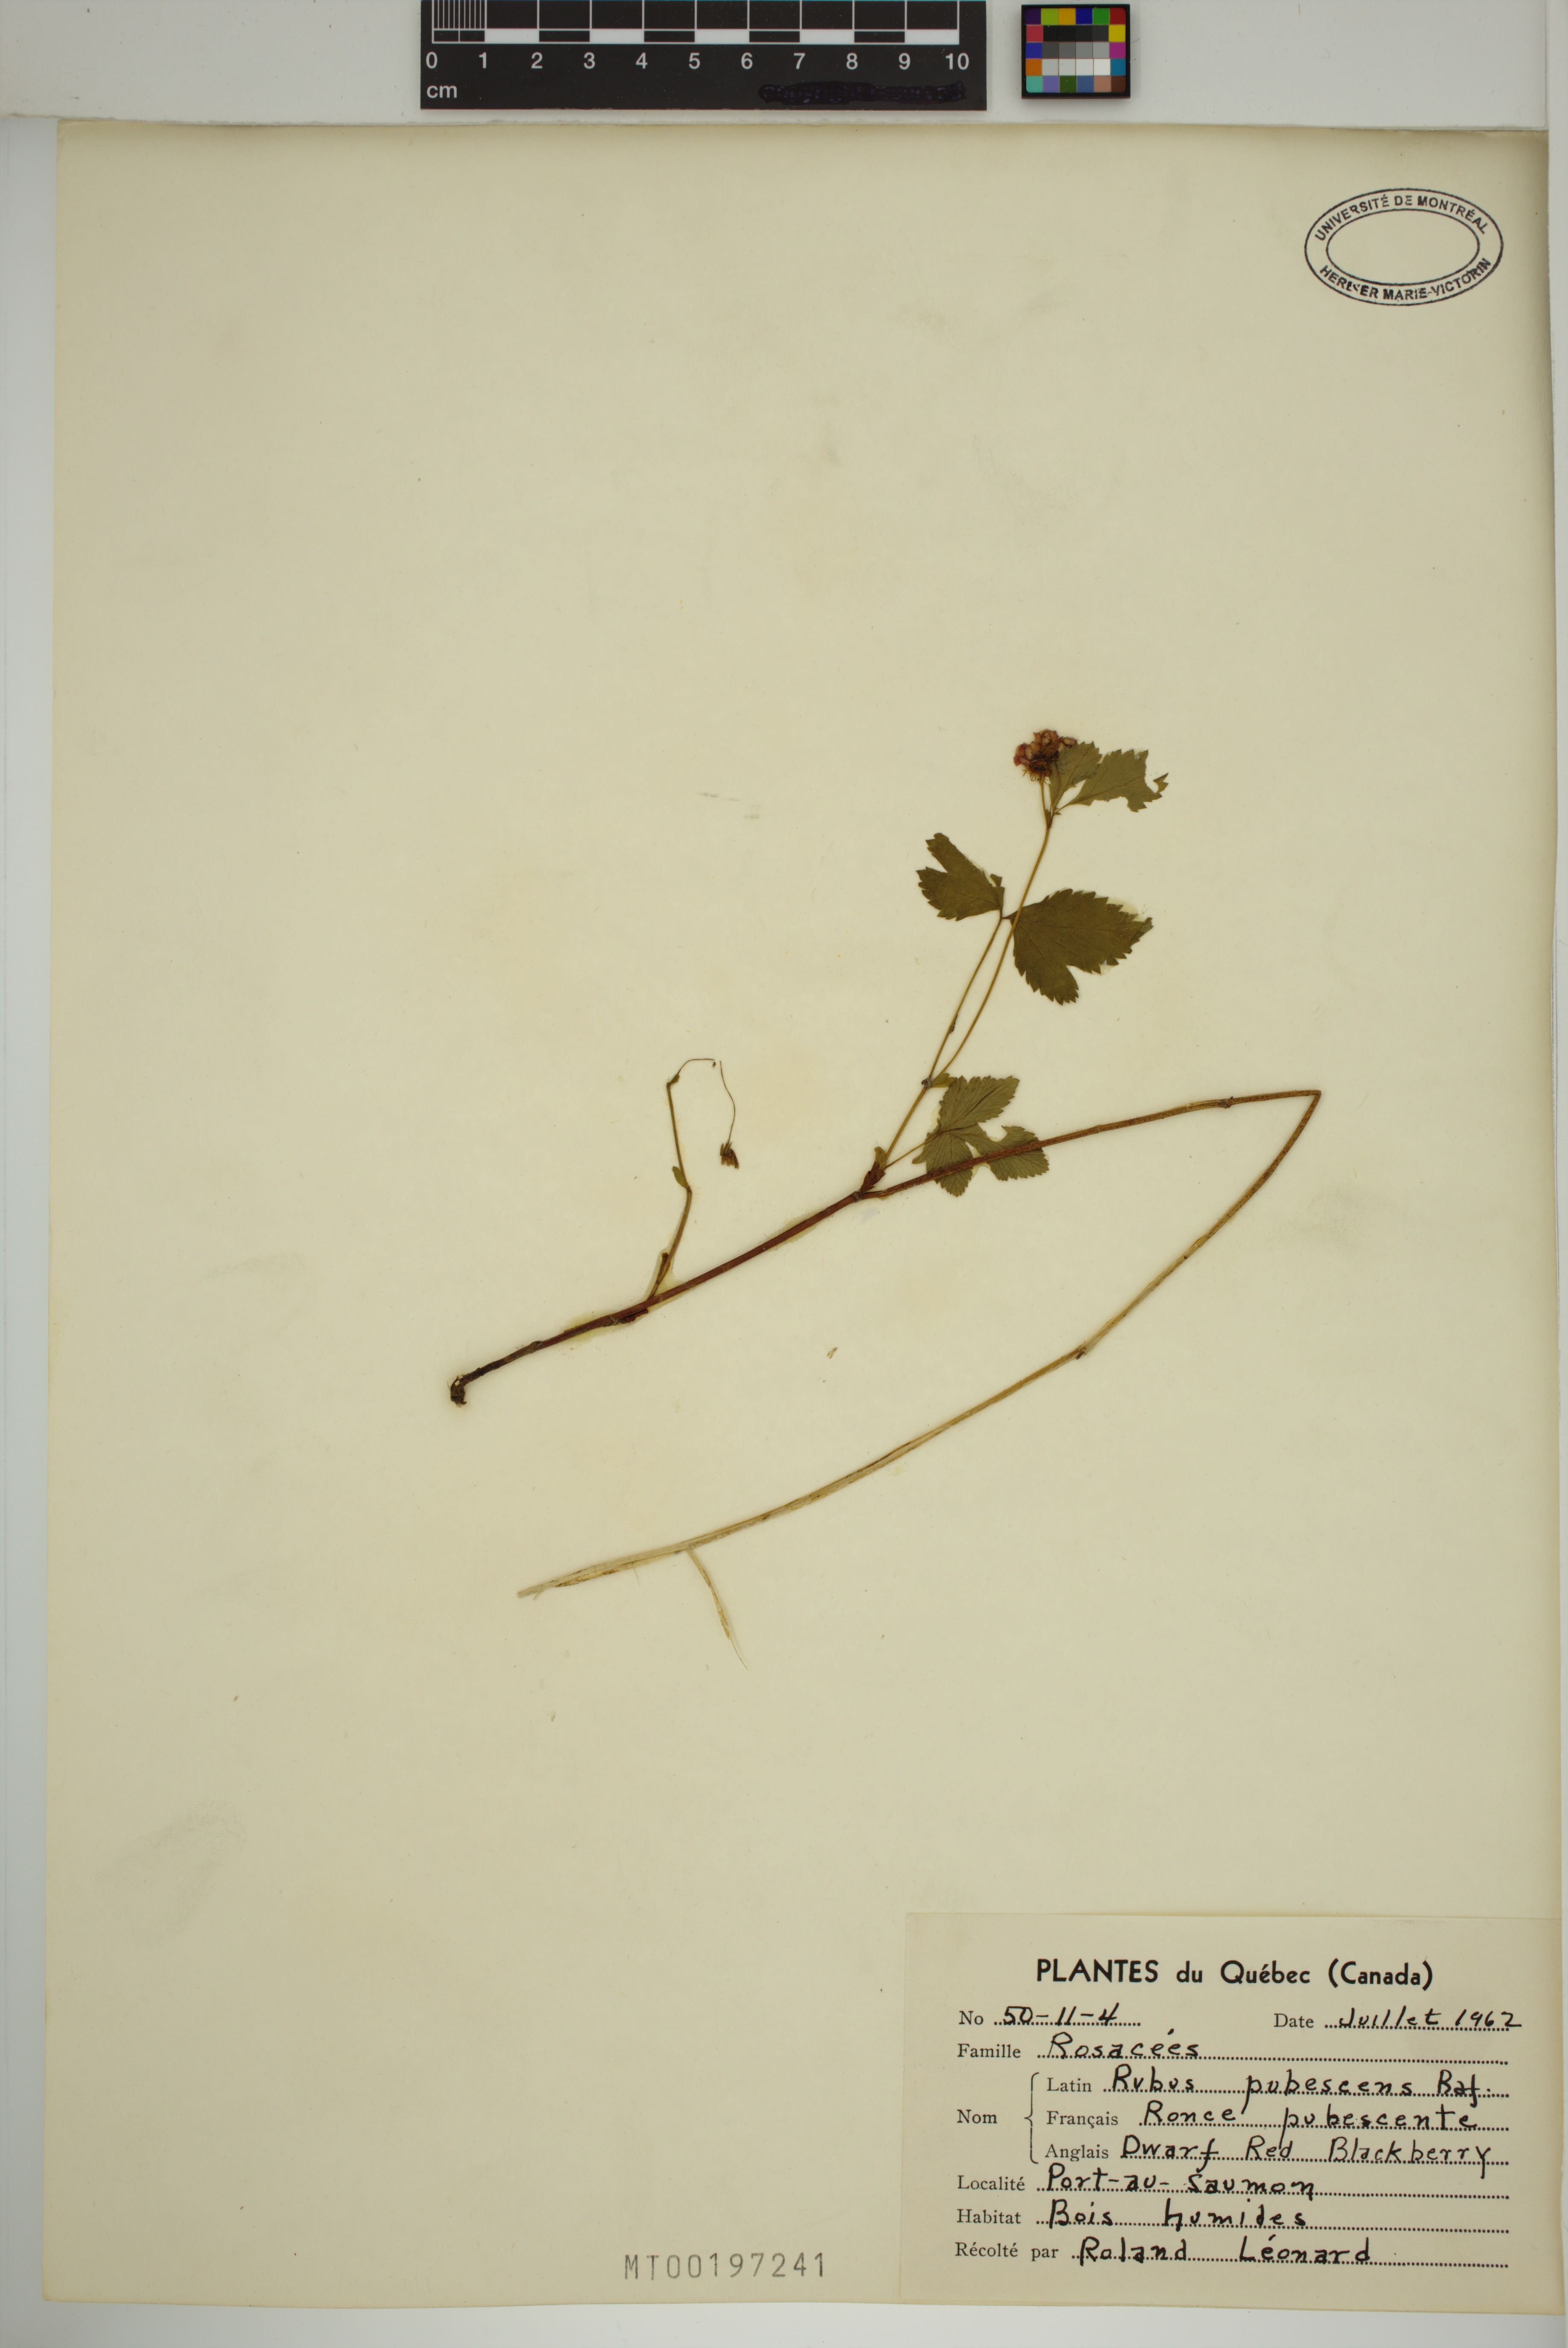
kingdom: Plantae
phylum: Tracheophyta
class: Magnoliopsida
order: Rosales
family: Rosaceae
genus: Rubus
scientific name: Rubus pubescens
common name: Dwarf raspberry
